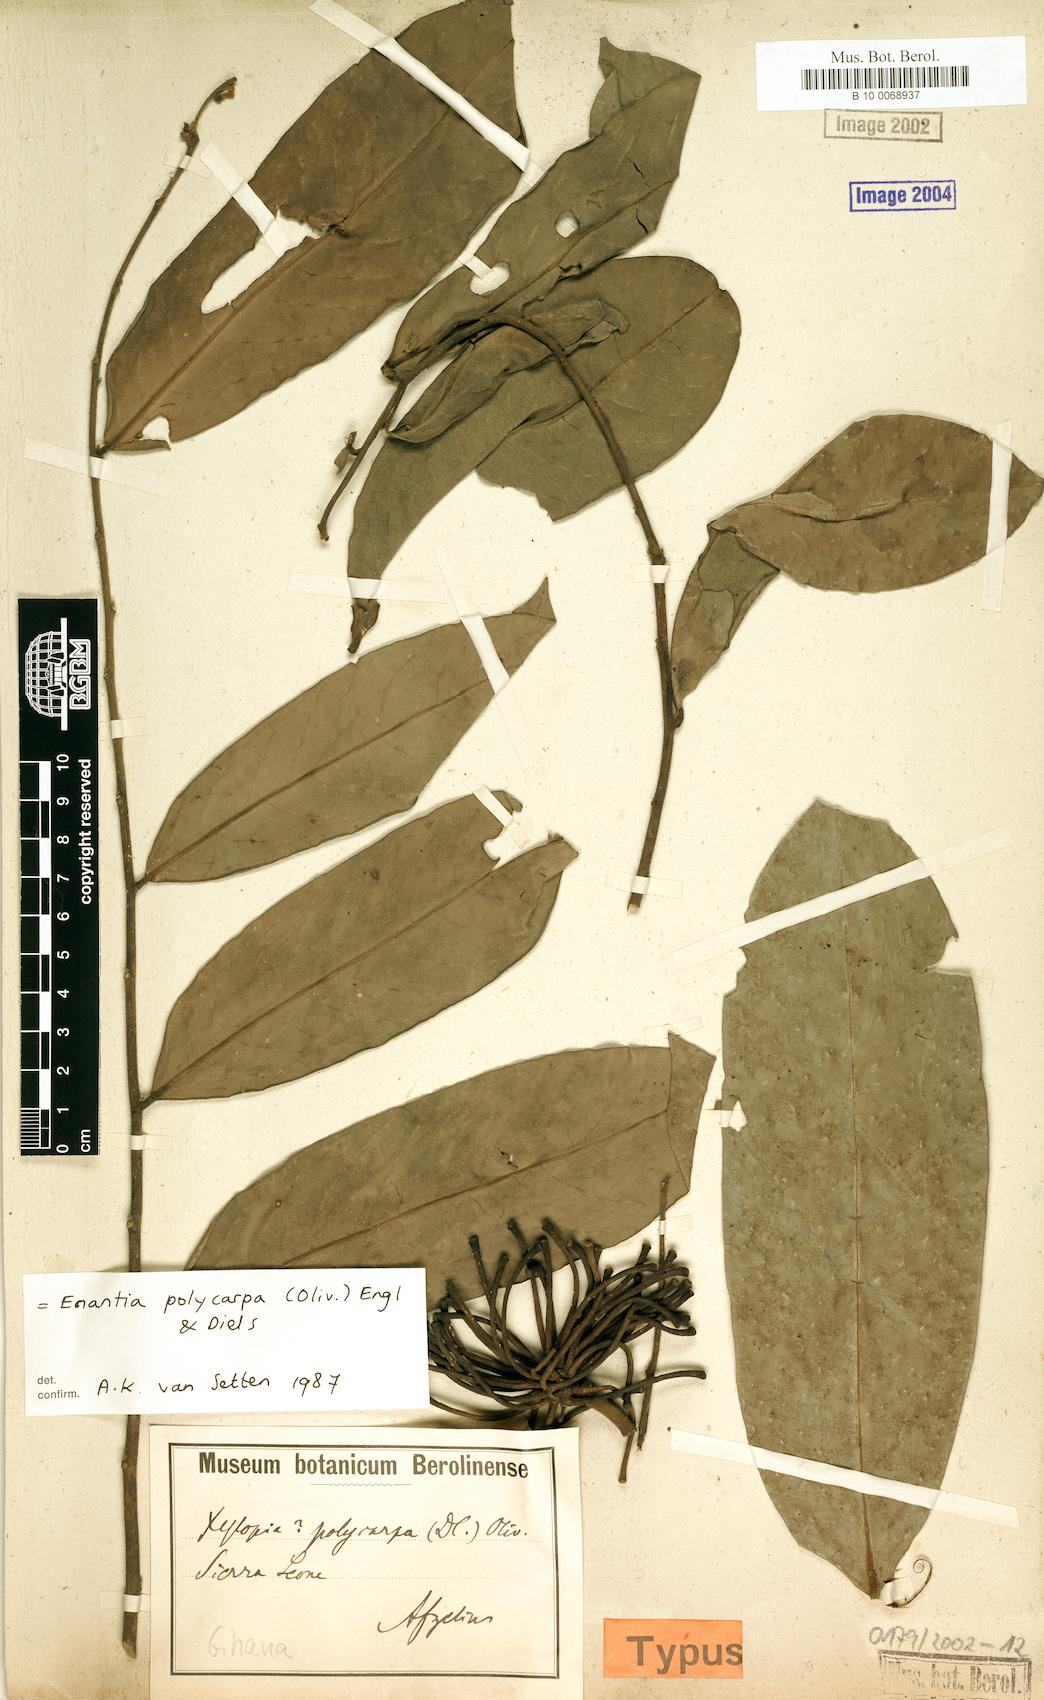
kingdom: Plantae
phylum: Tracheophyta
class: Magnoliopsida
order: Magnoliales
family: Annonaceae
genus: Annickia
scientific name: Annickia polycarpa
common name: African yellowwood
